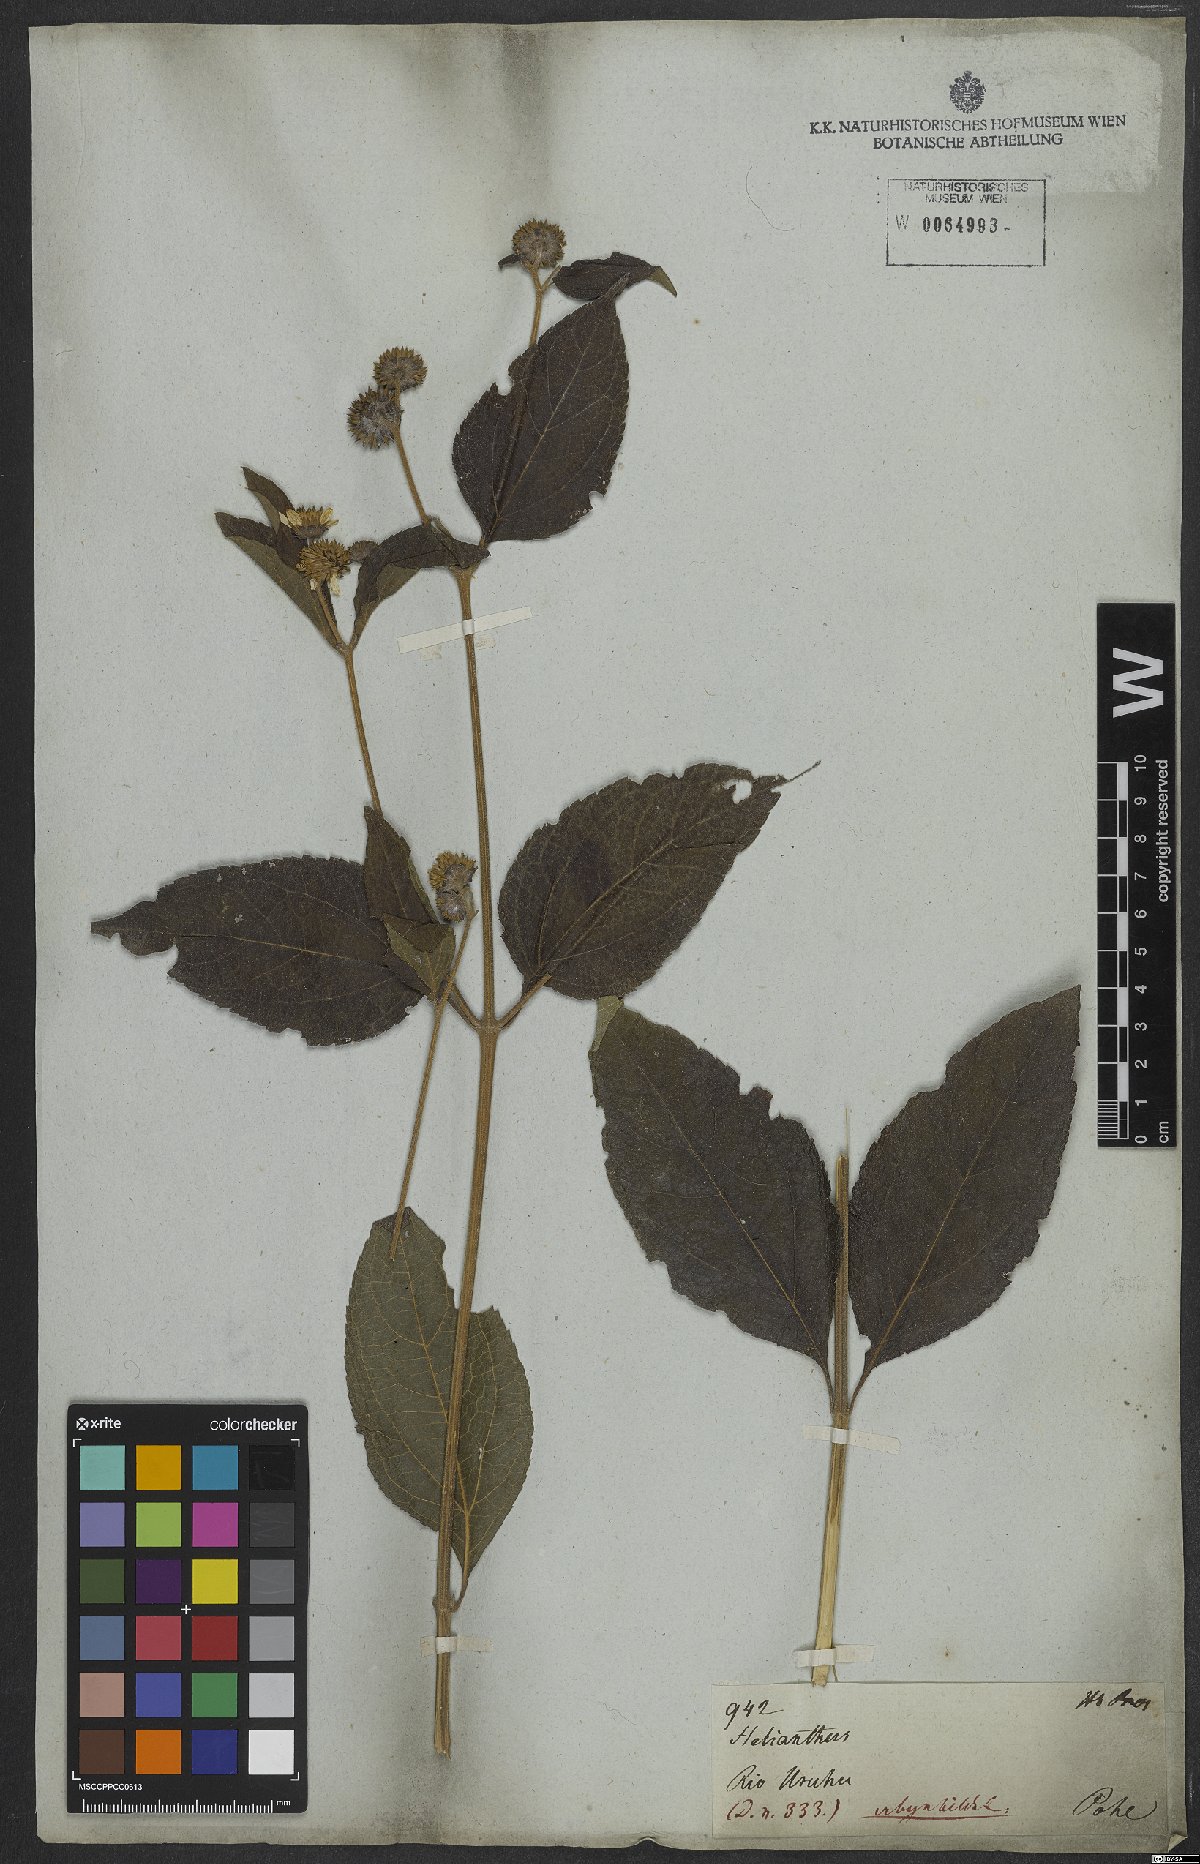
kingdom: Plantae
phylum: Tracheophyta
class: Magnoliopsida
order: Asterales
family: Asteraceae
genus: Tilesia
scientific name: Tilesia baccata
